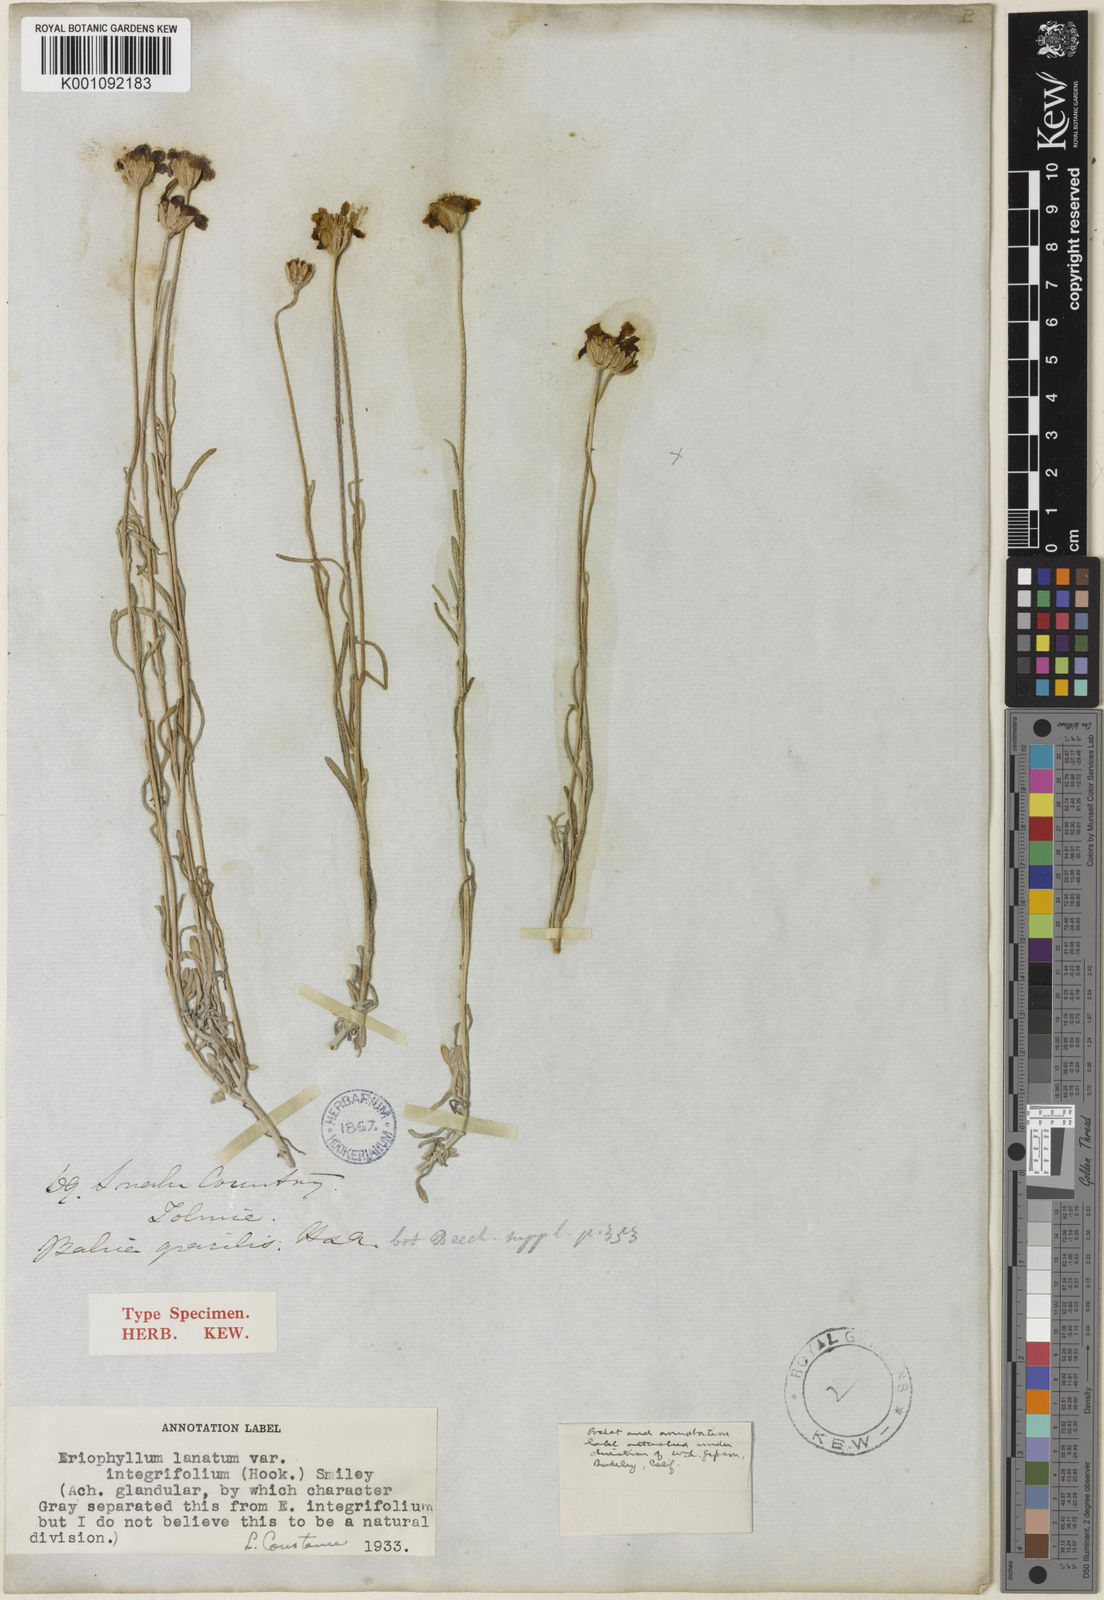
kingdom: Plantae
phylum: Tracheophyta
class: Magnoliopsida
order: Asterales
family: Asteraceae
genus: Eriophyllum
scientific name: Eriophyllum lanatum
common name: Common woolly-sunflower
